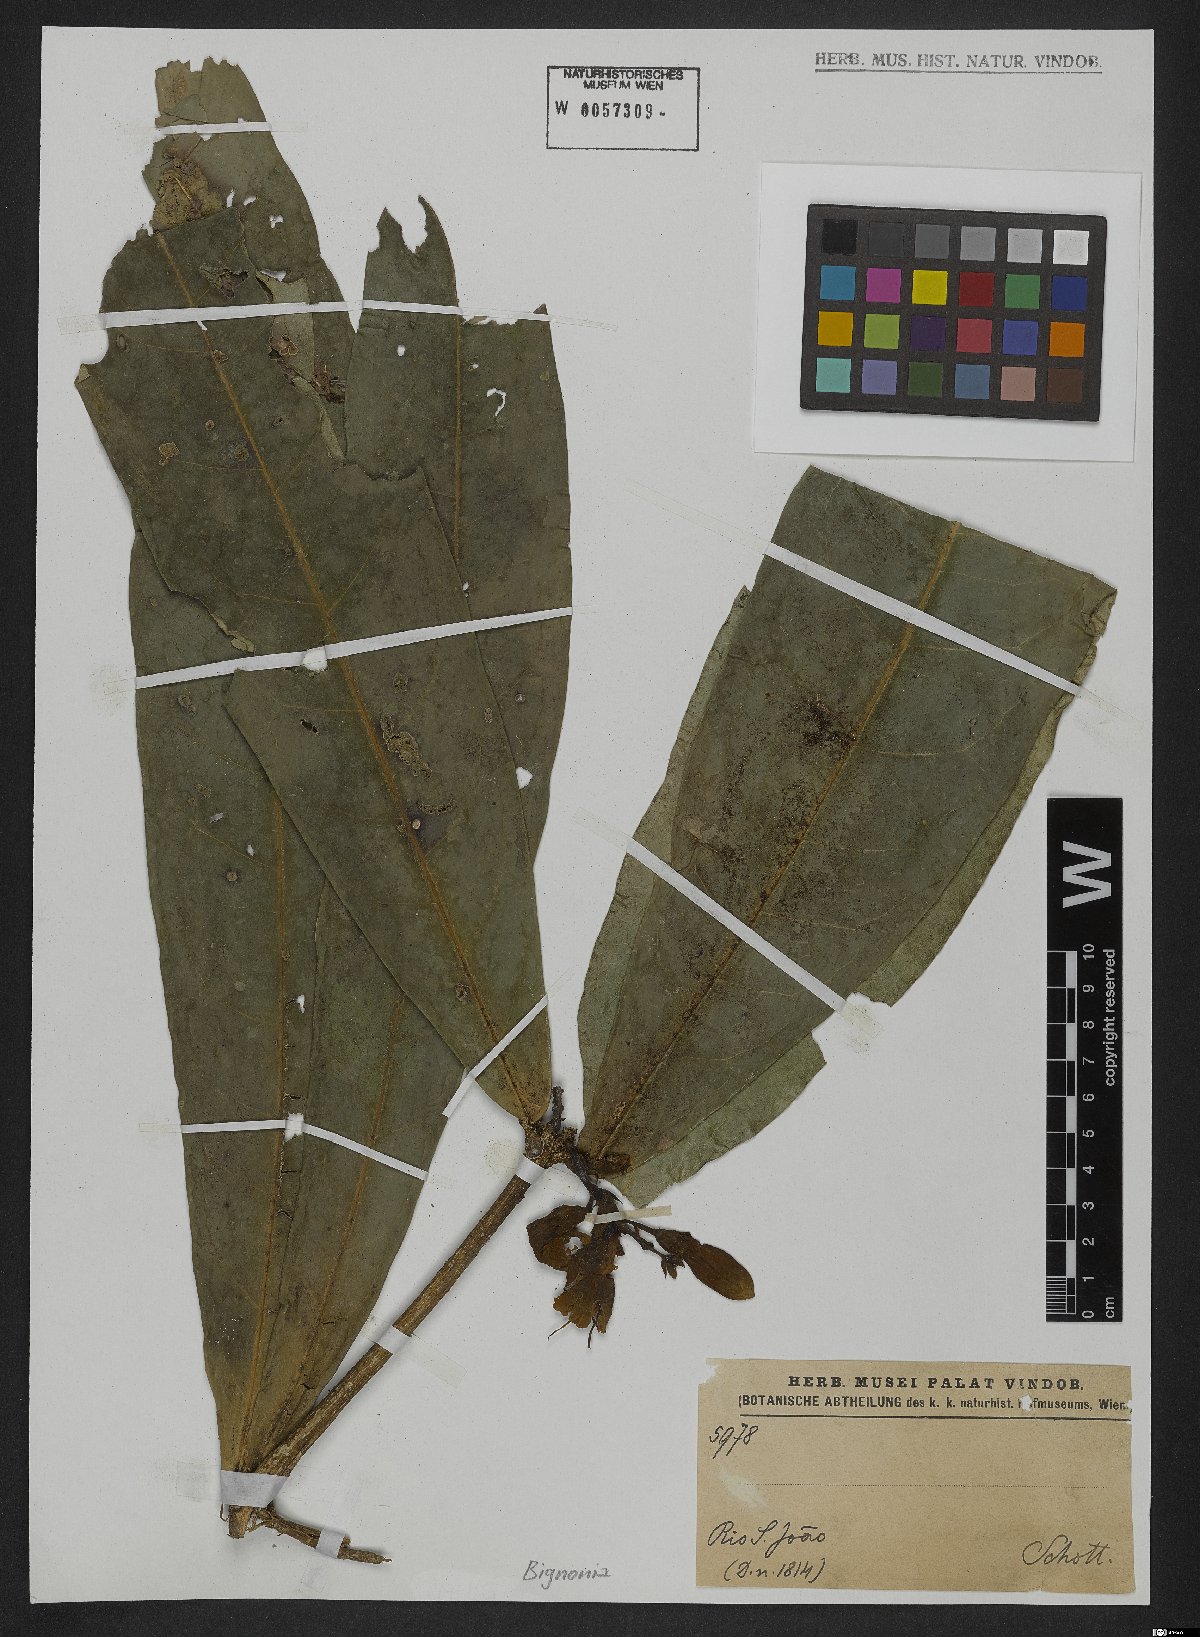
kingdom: Plantae
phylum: Tracheophyta
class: Magnoliopsida
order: Lamiales
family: Bignoniaceae
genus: Bignonia
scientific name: Bignonia
